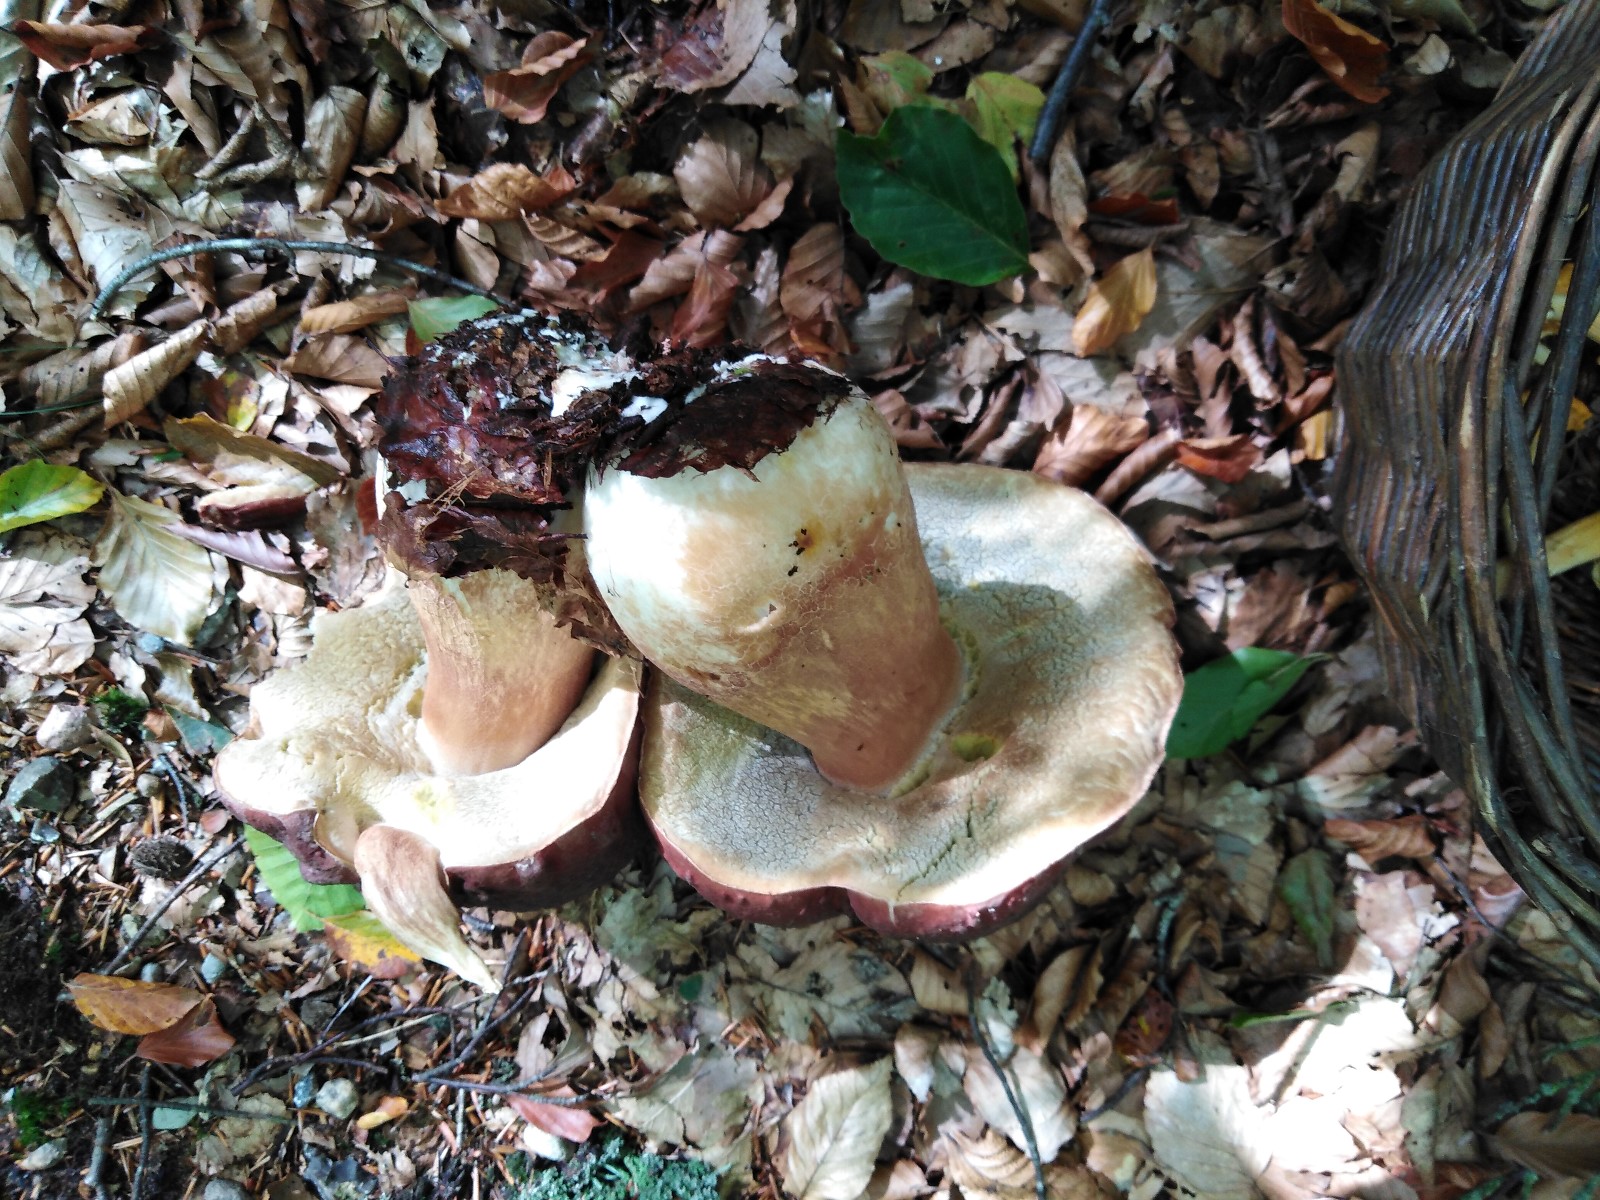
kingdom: Fungi
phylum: Basidiomycota
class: Agaricomycetes
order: Boletales
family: Boletaceae
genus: Boletus
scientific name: Boletus pinophilus
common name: rødbrun rørhat
